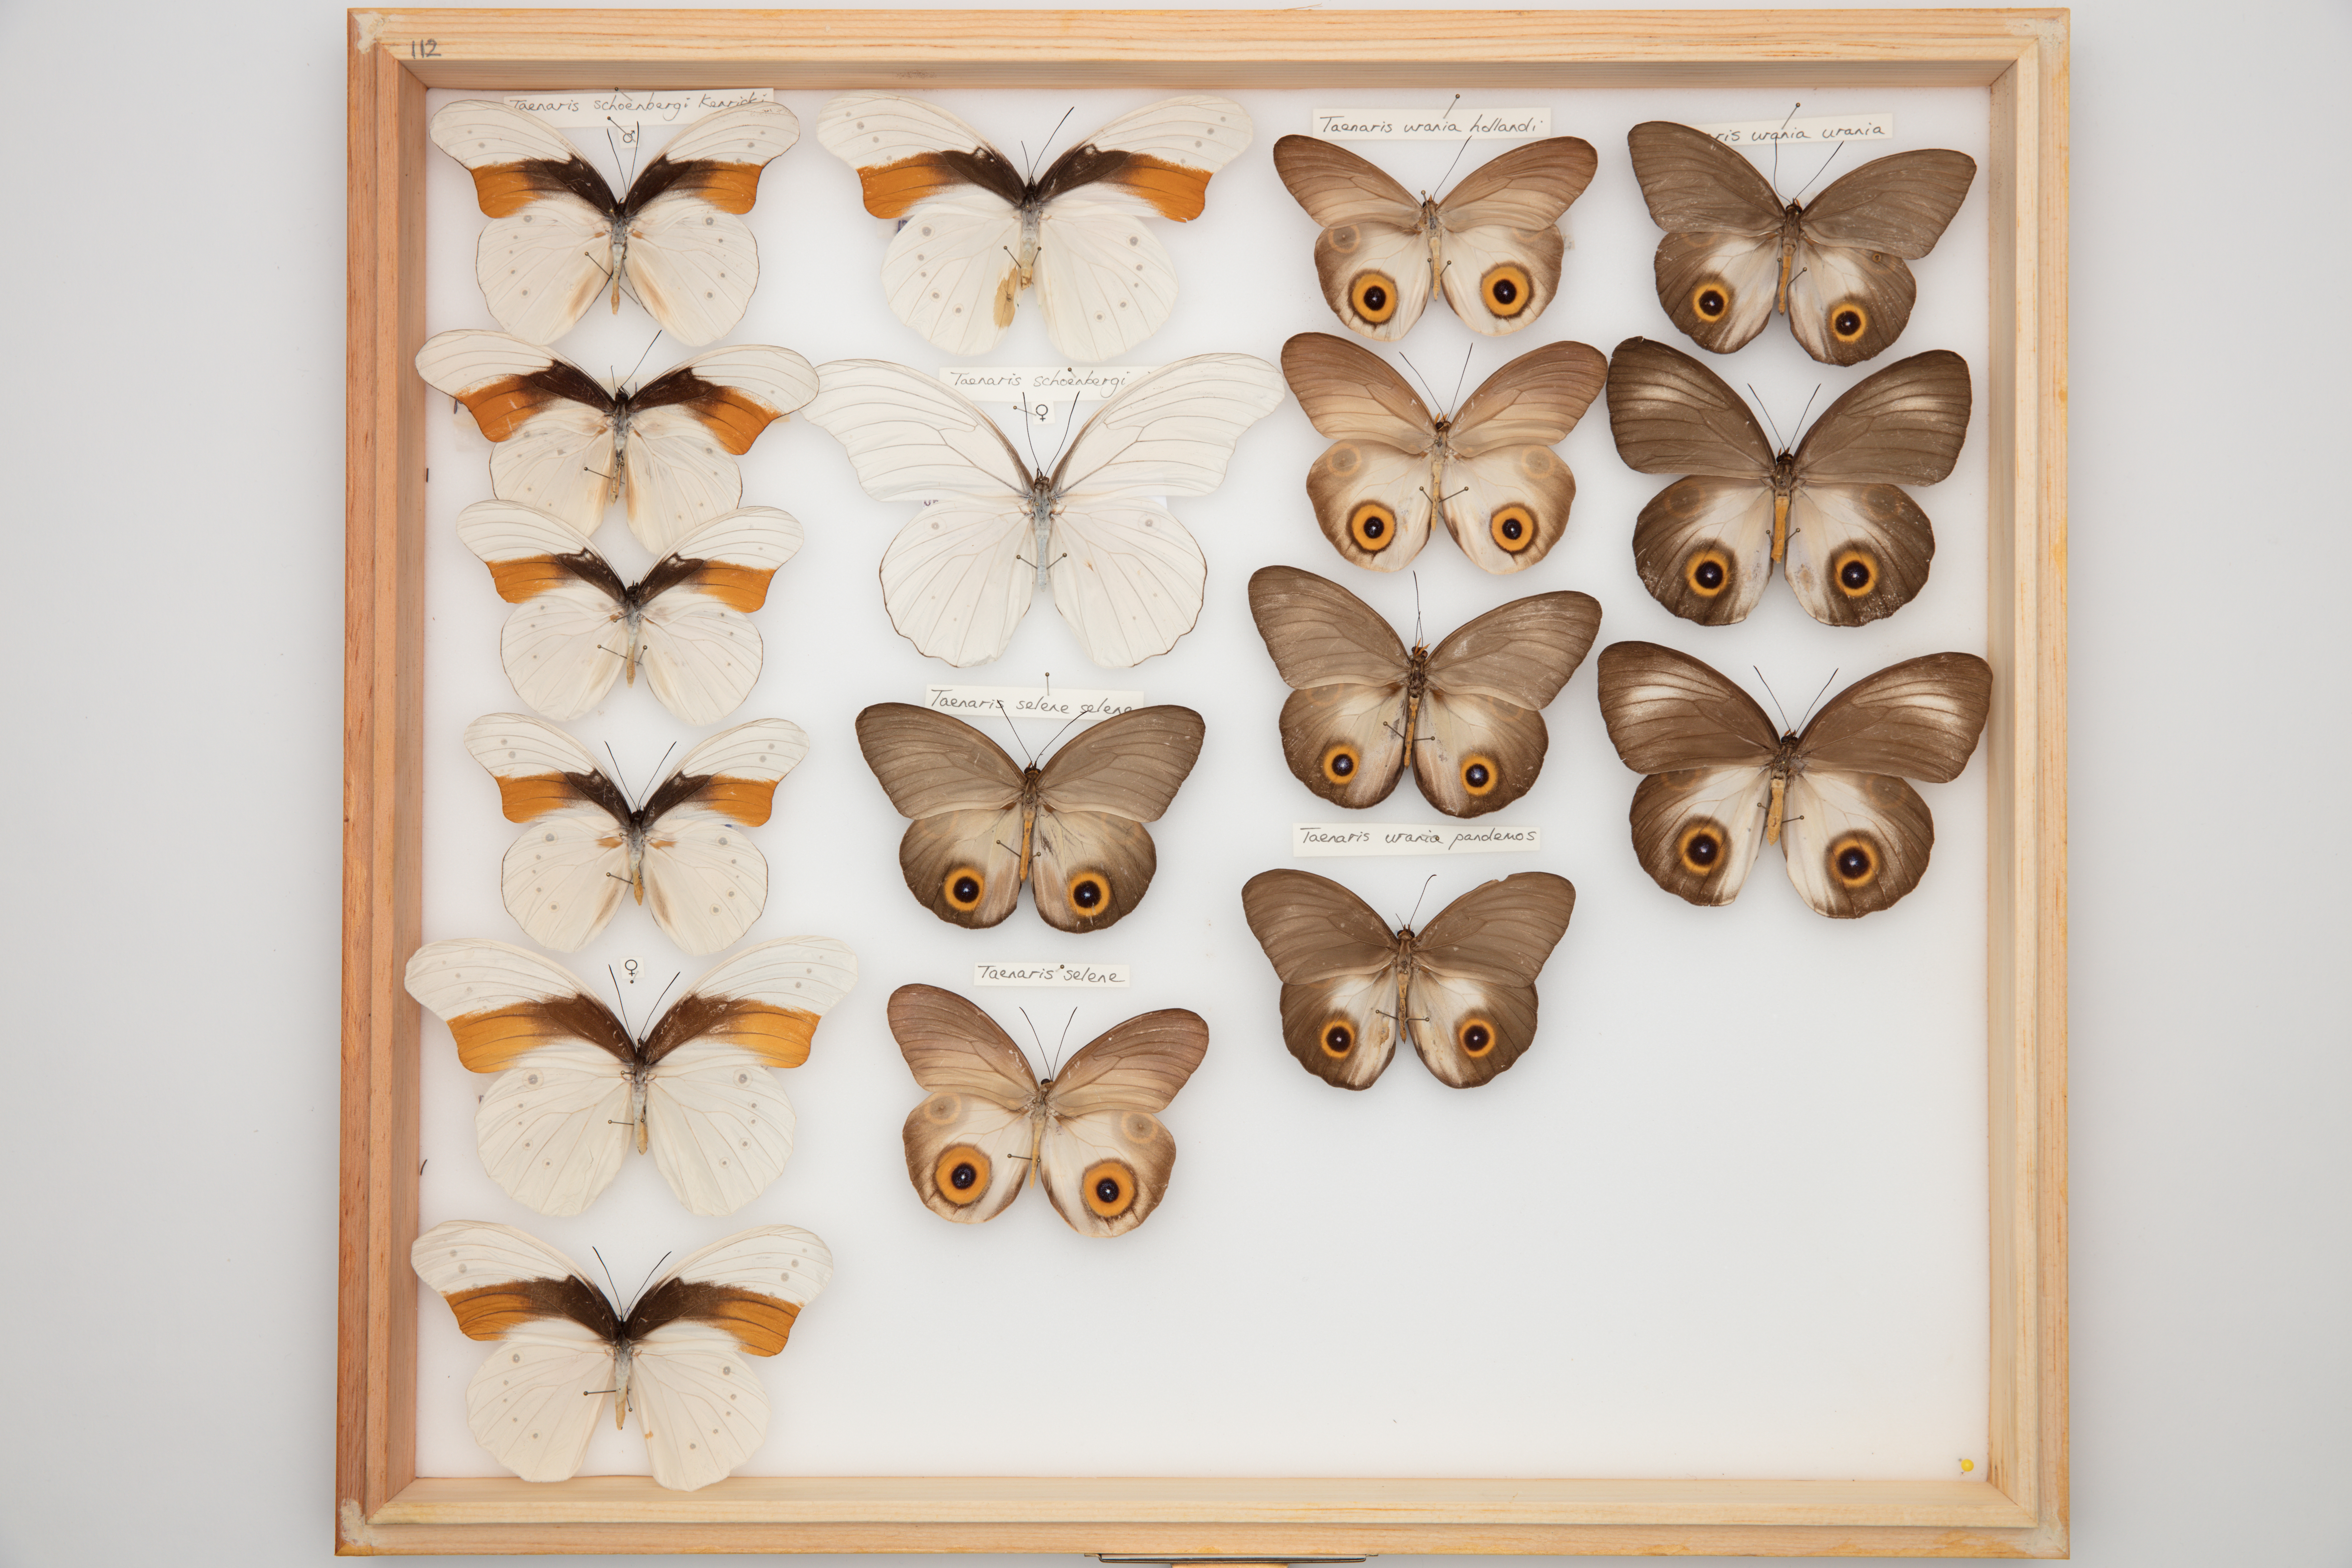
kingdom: Animalia
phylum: Arthropoda
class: Insecta
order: Lepidoptera
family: Nymphalidae
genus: Taenaris
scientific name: Taenaris schonbergi
